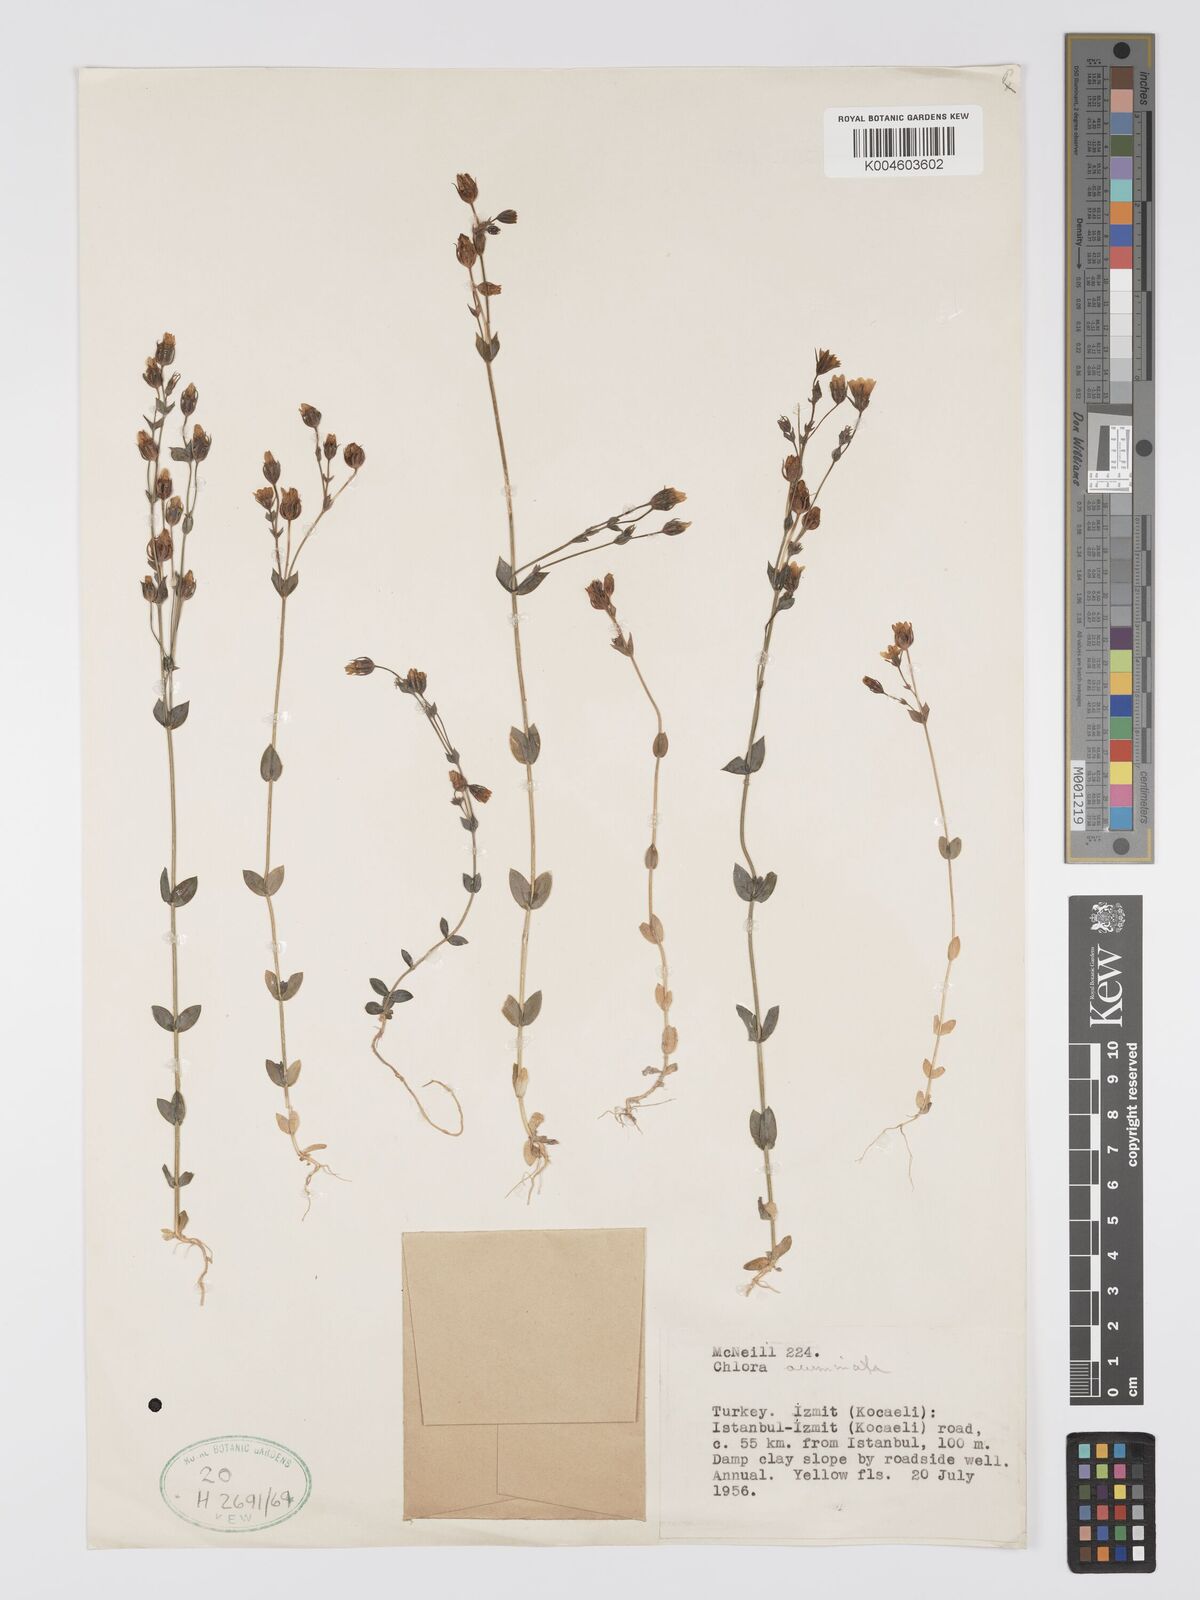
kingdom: Plantae
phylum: Tracheophyta
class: Magnoliopsida
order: Gentianales
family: Gentianaceae
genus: Blackstonia
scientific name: Blackstonia acuminata
